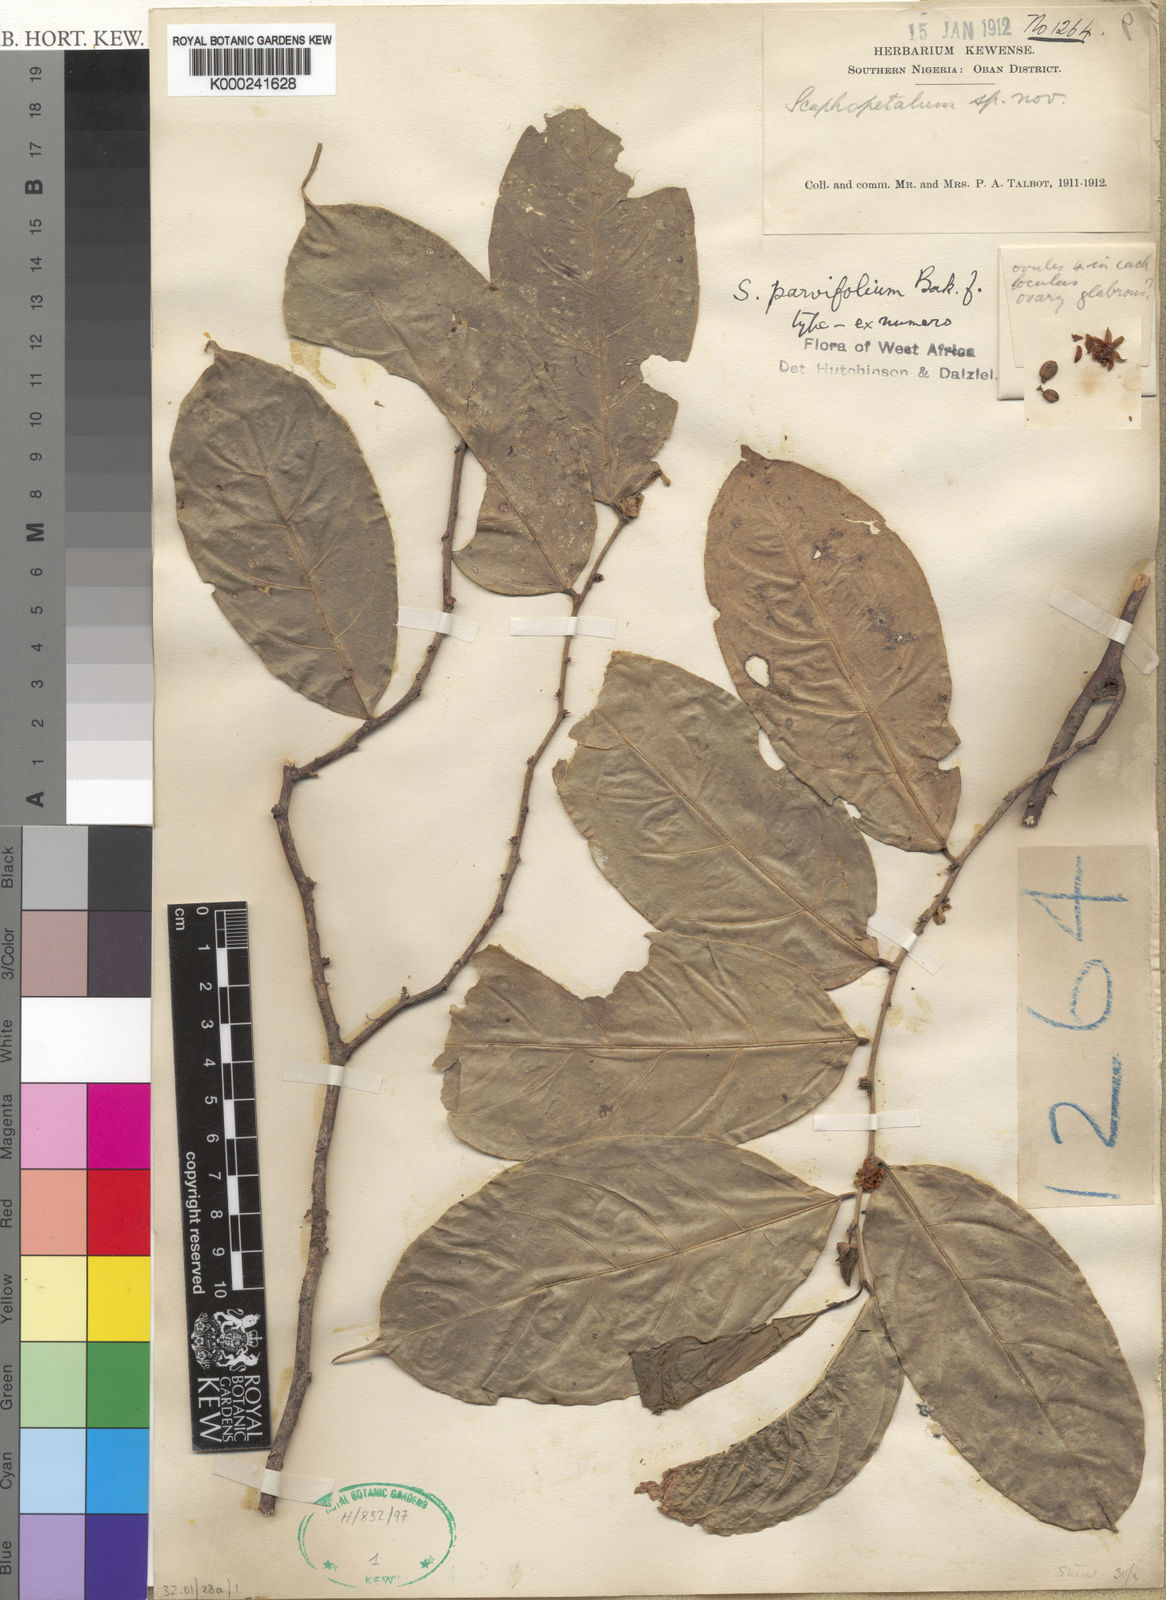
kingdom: Plantae
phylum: Tracheophyta
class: Magnoliopsida
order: Malvales
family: Malvaceae
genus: Scaphopetalum
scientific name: Scaphopetalum parvifolium
